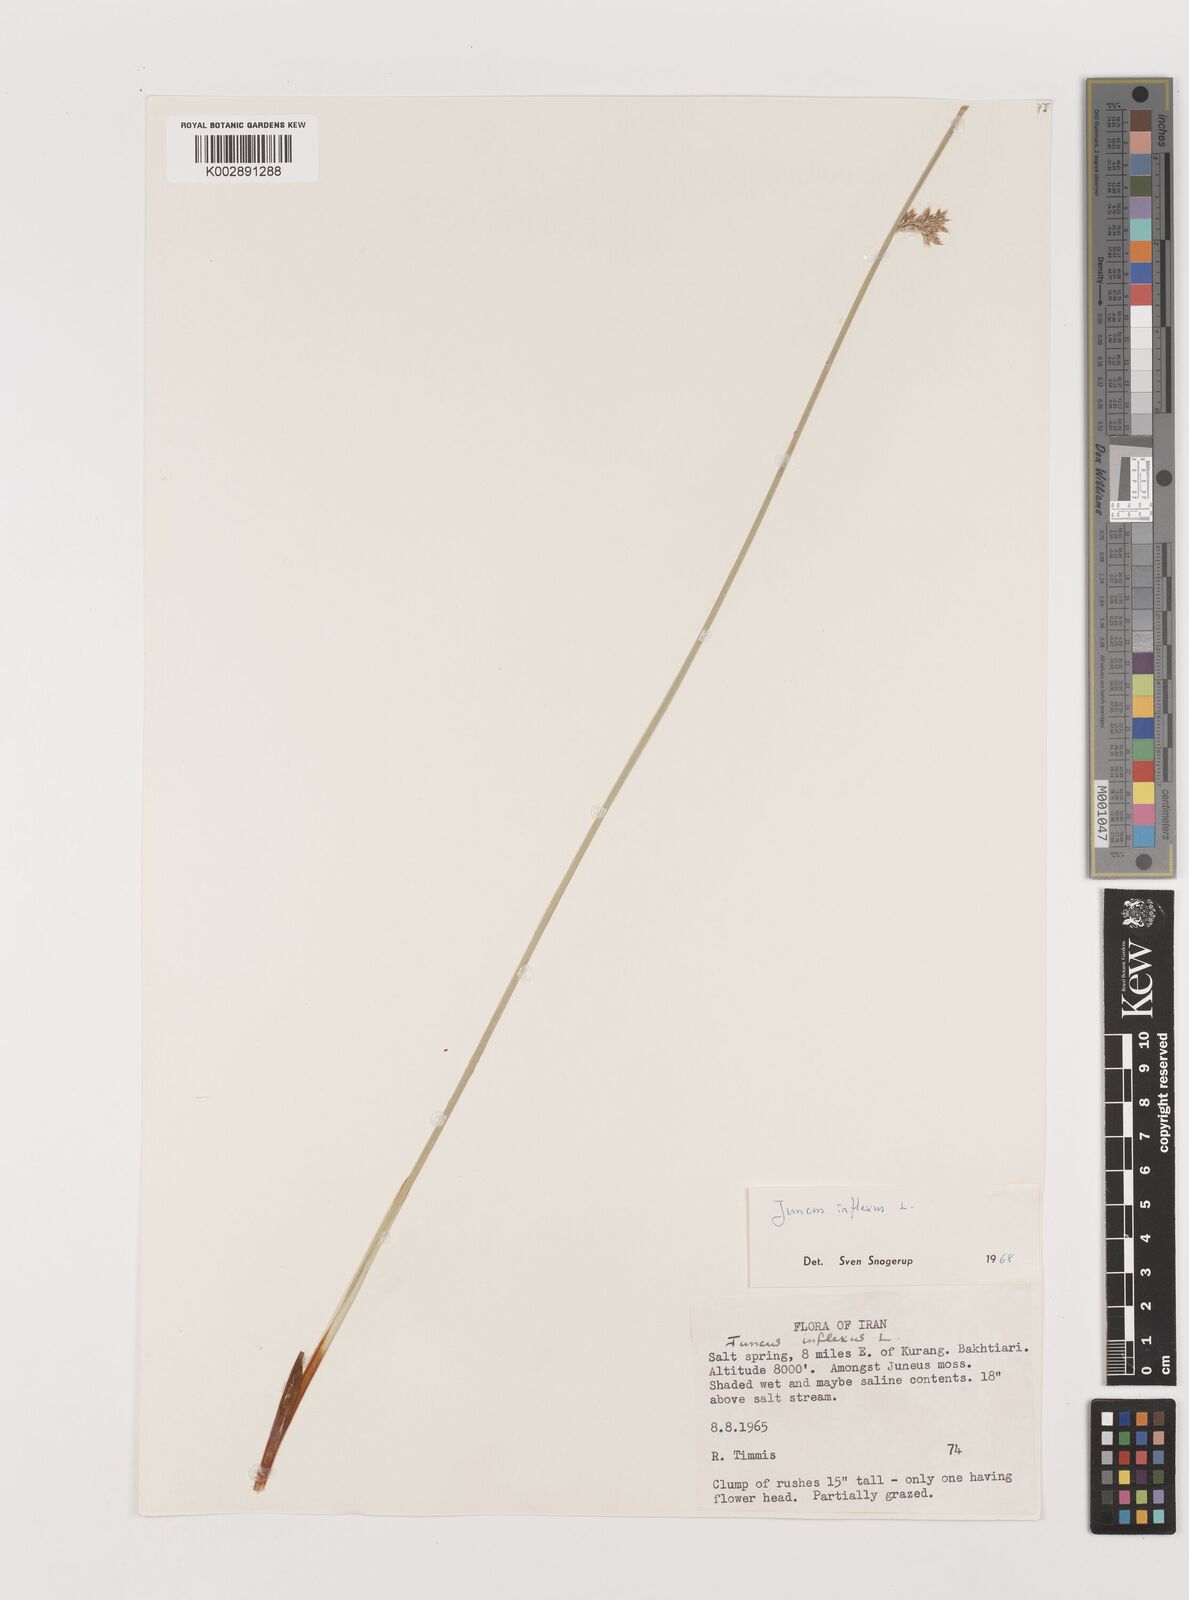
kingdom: Plantae
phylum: Tracheophyta
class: Liliopsida
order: Poales
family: Juncaceae
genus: Juncus
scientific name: Juncus inflexus
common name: Hard rush
